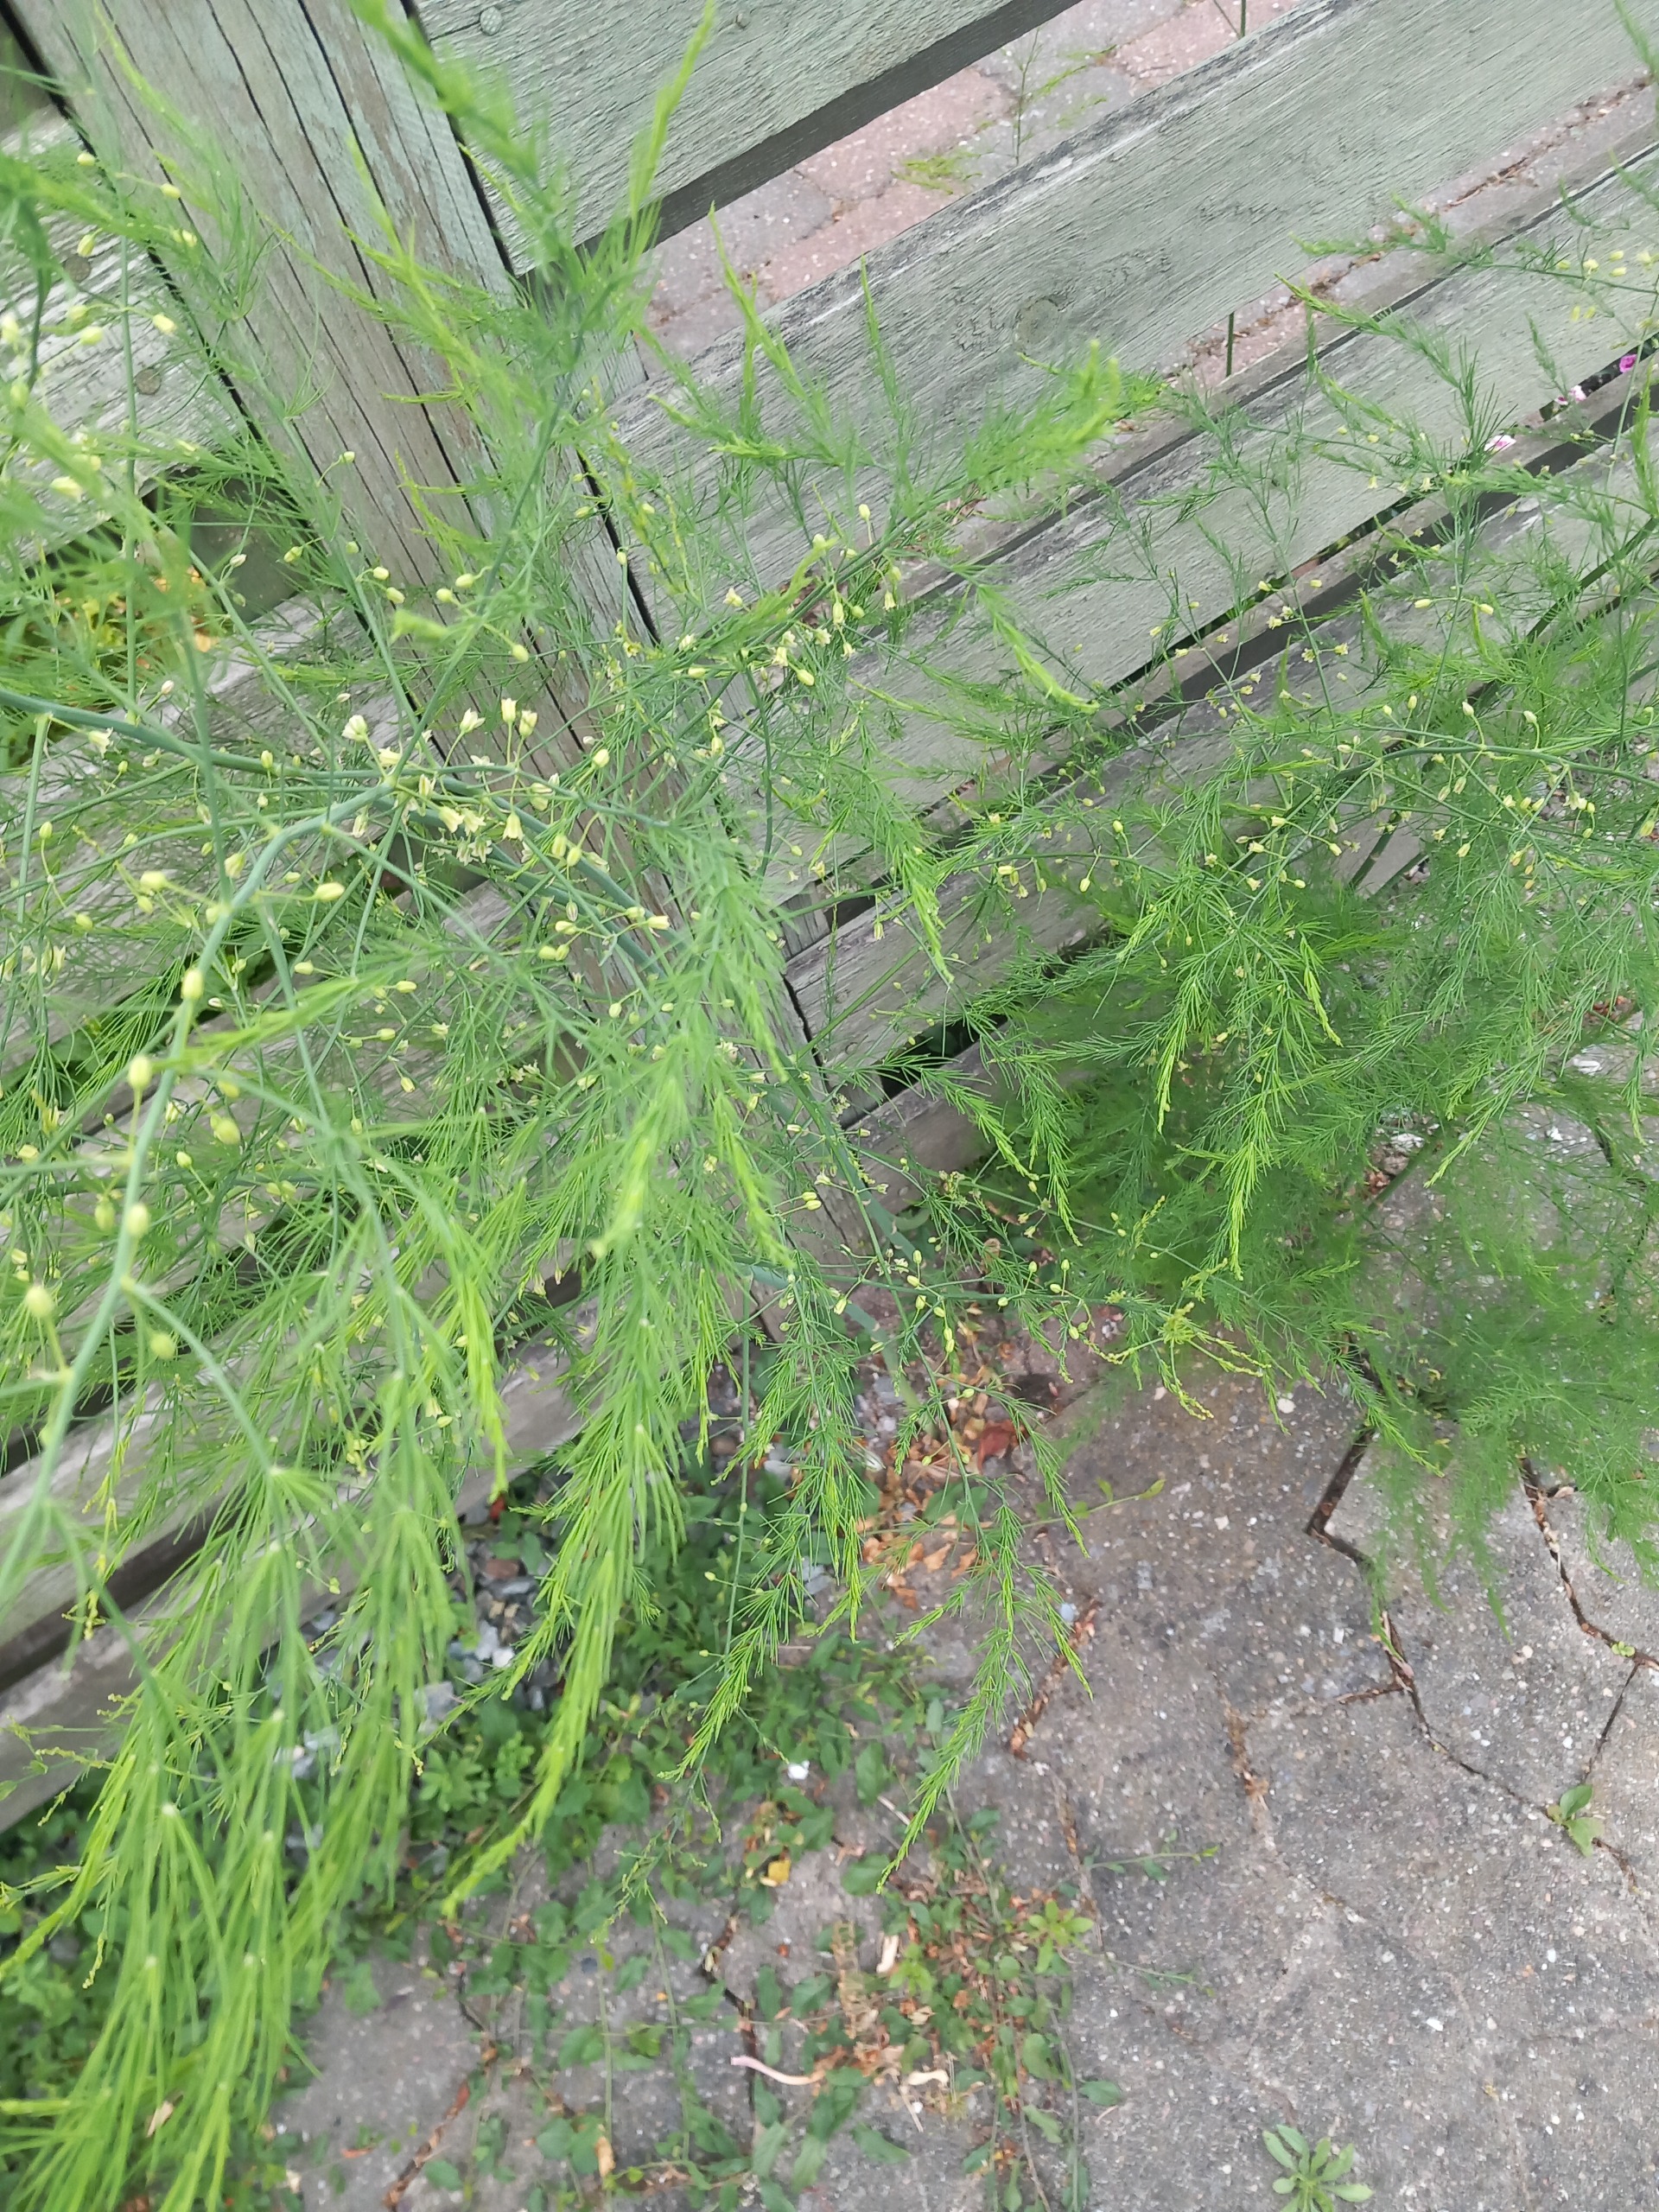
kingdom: Plantae
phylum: Tracheophyta
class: Liliopsida
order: Asparagales
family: Asparagaceae
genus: Asparagus
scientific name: Asparagus officinalis
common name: Asparges
